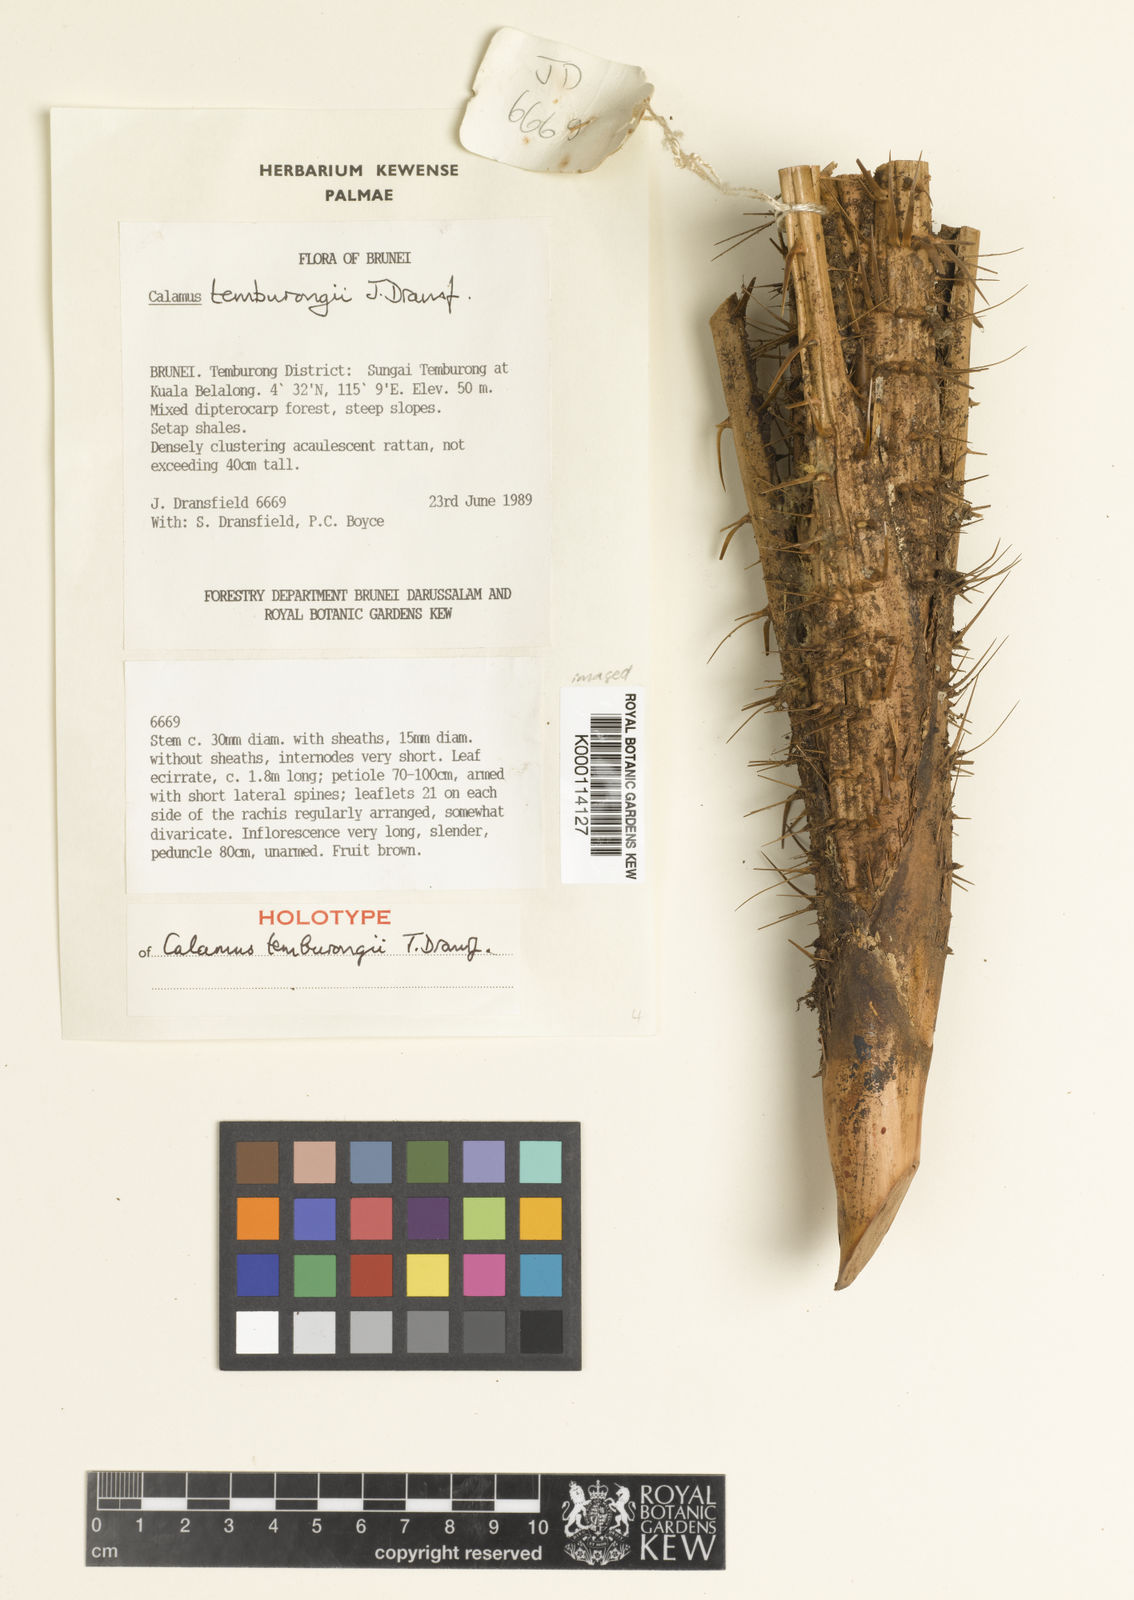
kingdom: Plantae
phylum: Tracheophyta
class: Liliopsida
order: Arecales
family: Arecaceae
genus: Calamus
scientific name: Calamus acanthochlamys
